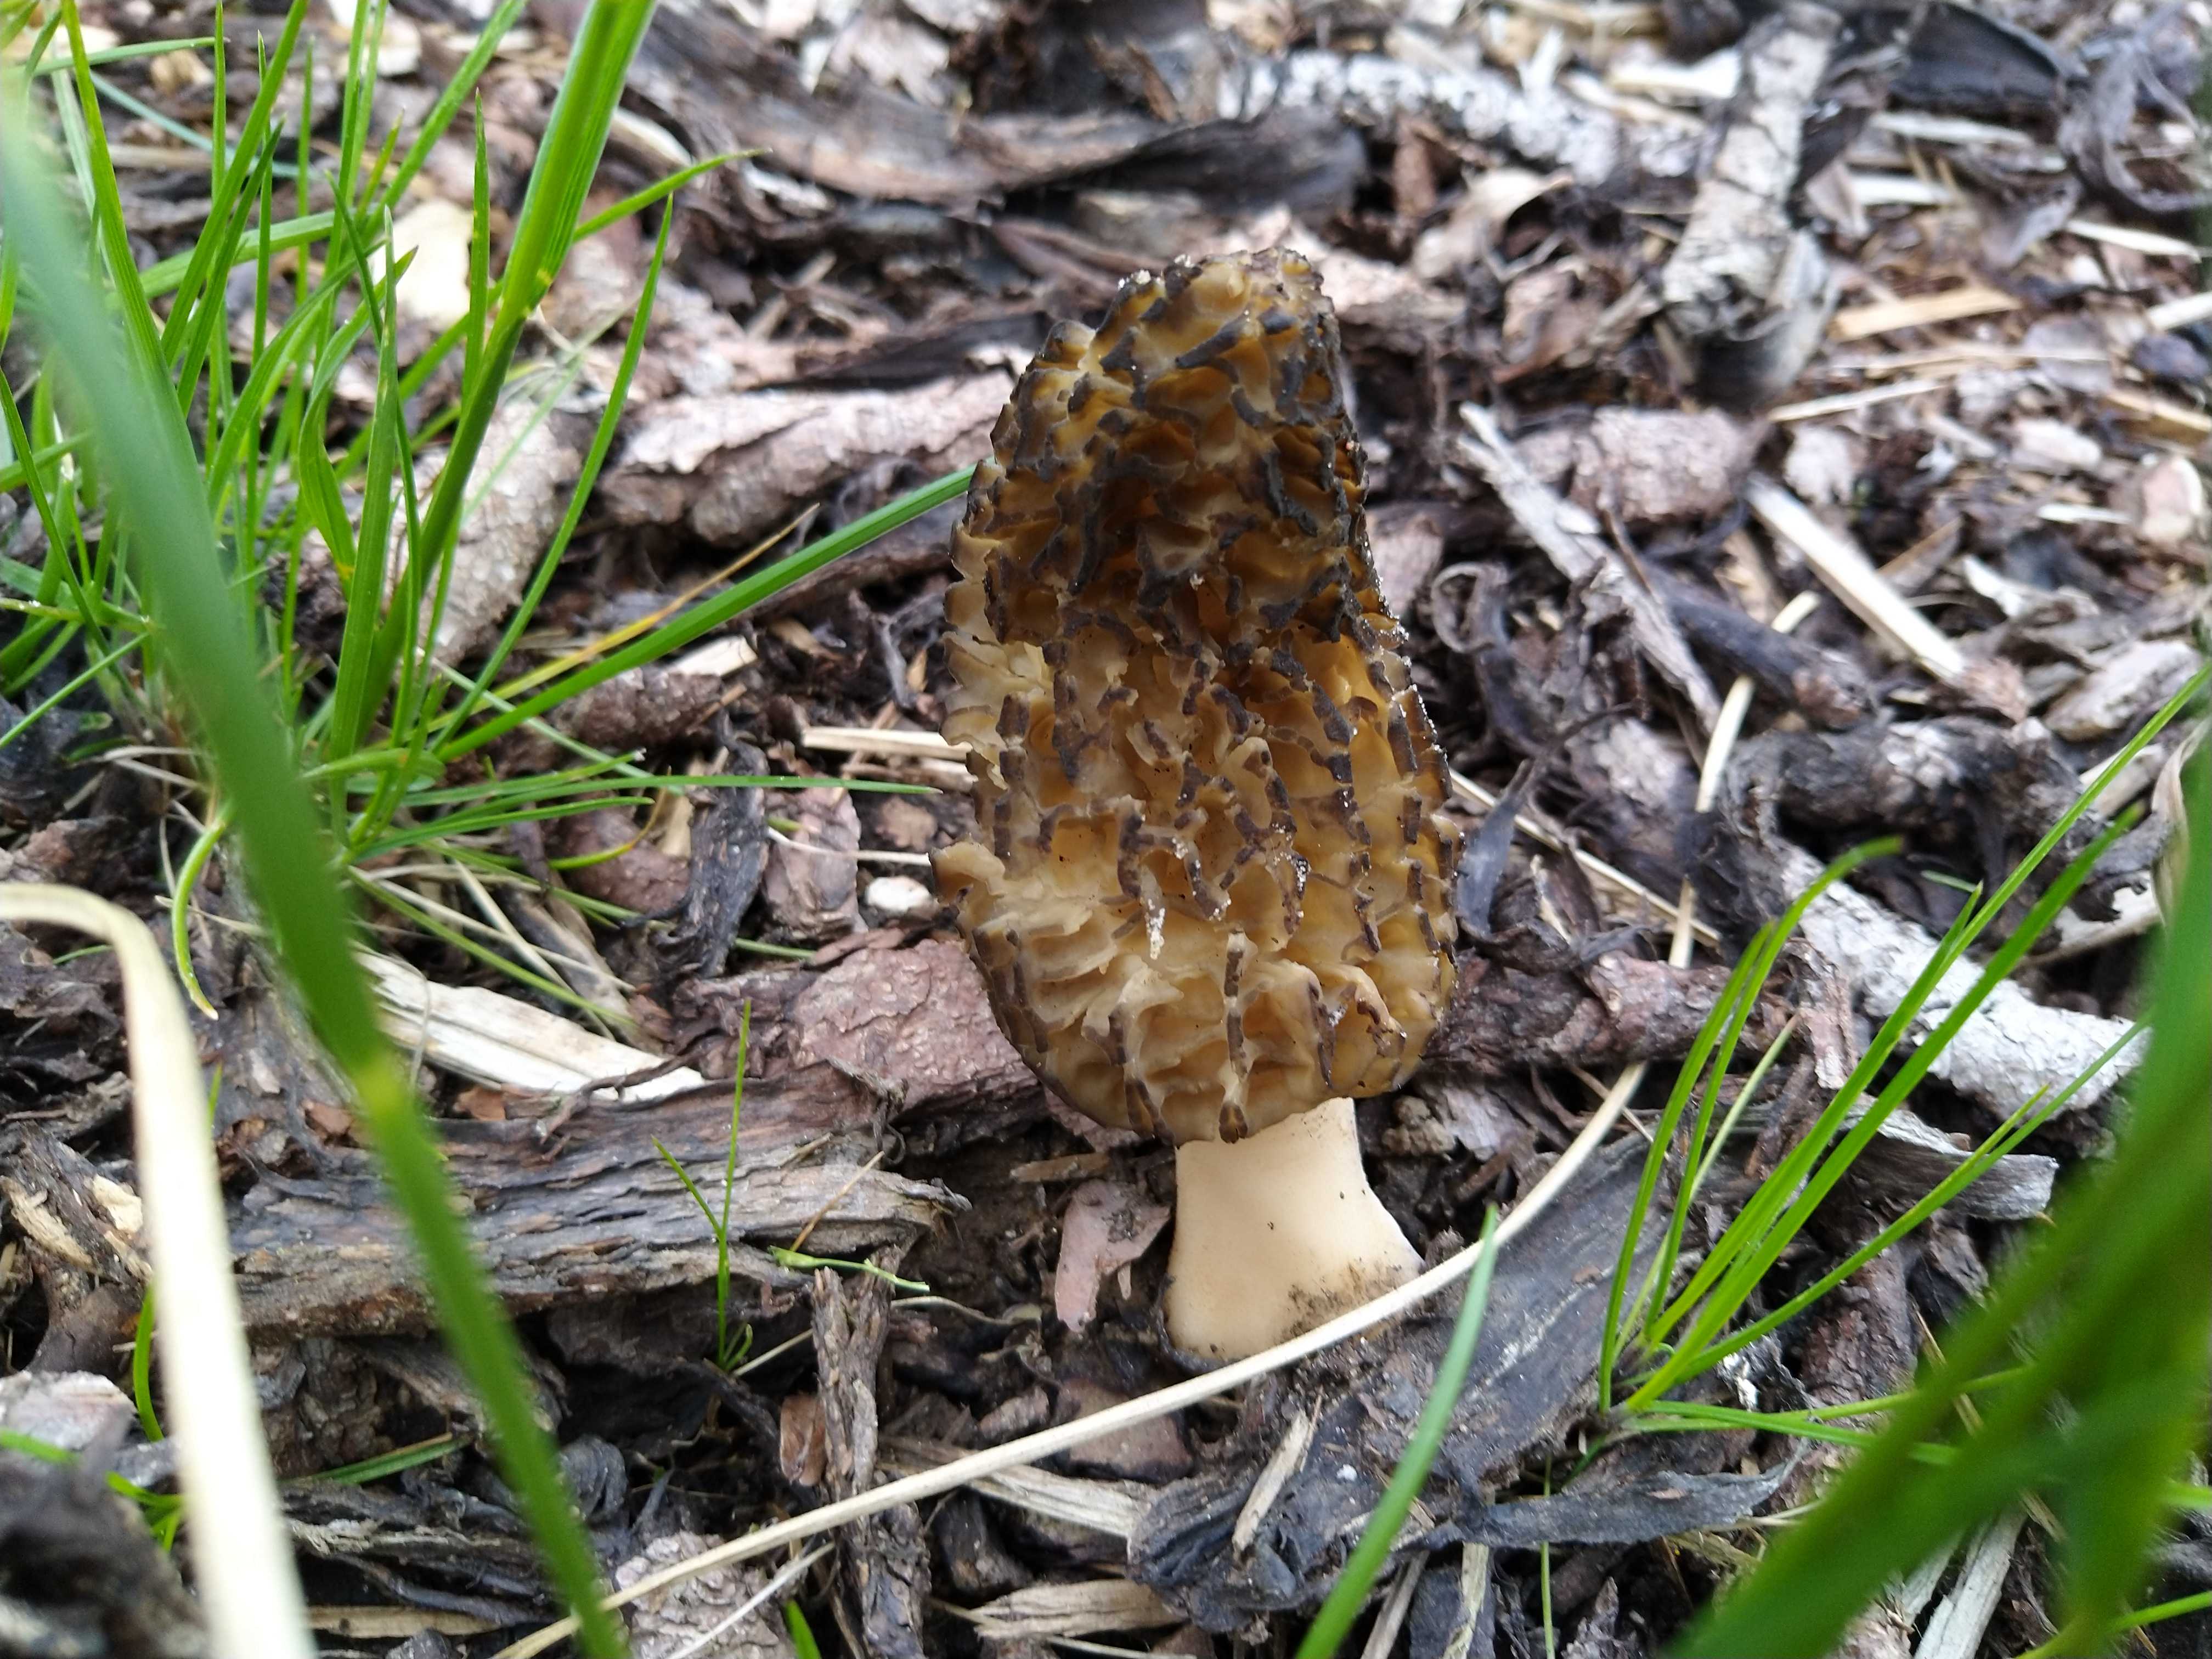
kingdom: Fungi
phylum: Ascomycota
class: Pezizomycetes
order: Pezizales
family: Morchellaceae
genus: Morchella
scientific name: Morchella importuna
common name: Landscaping black morel
